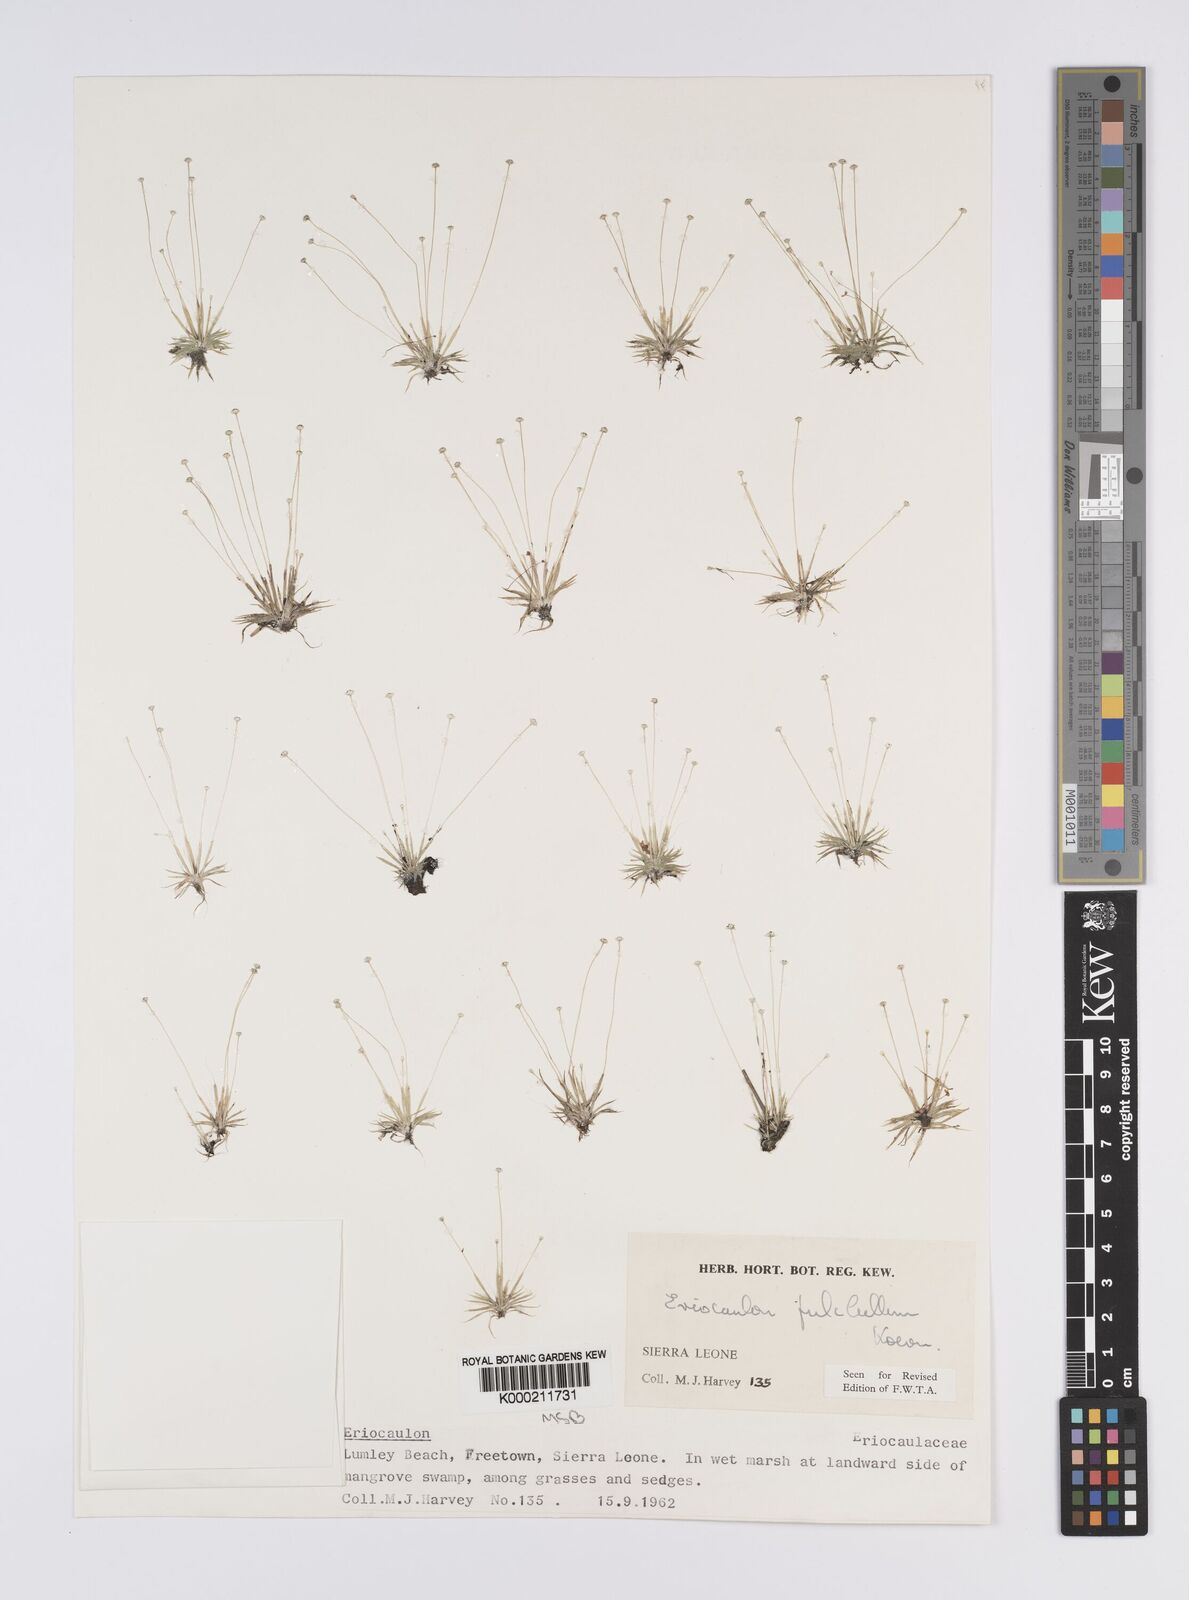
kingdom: Plantae
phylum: Tracheophyta
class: Liliopsida
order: Poales
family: Eriocaulaceae
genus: Eriocaulon
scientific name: Eriocaulon
